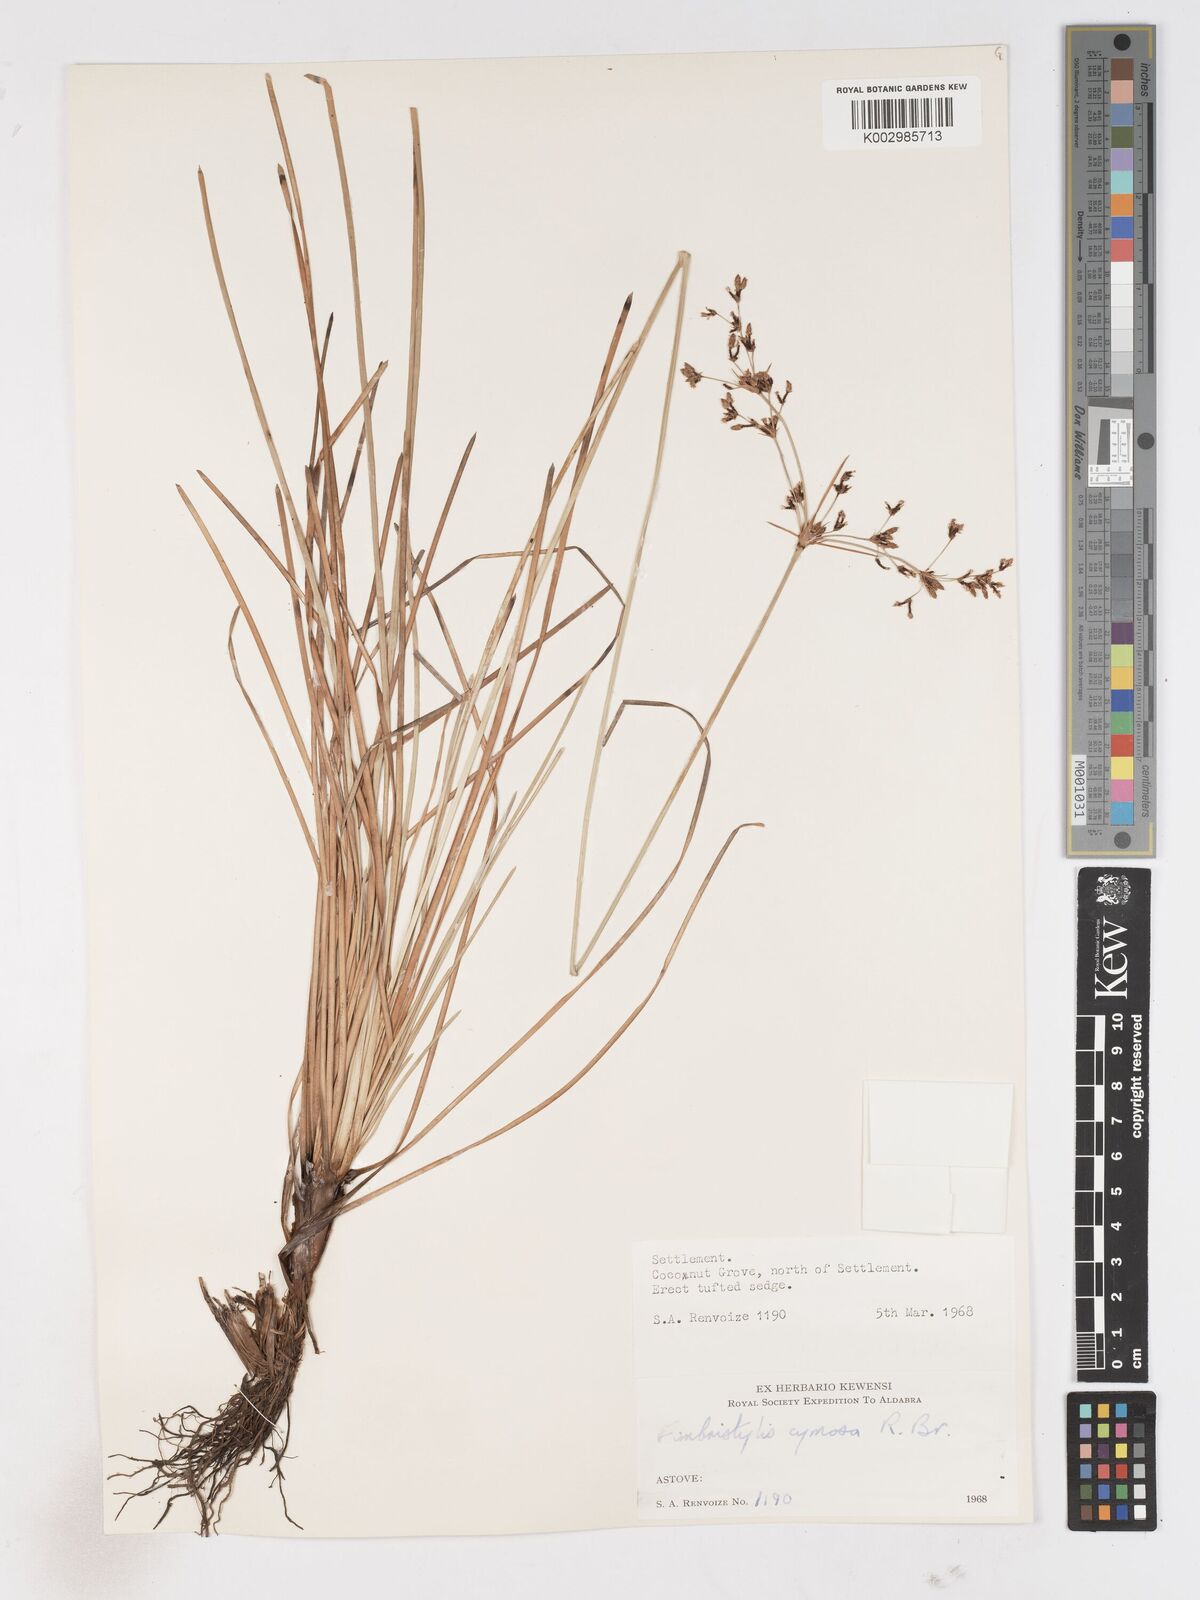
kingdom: Plantae
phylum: Tracheophyta
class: Liliopsida
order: Poales
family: Cyperaceae
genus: Fimbristylis
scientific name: Fimbristylis cymosa
